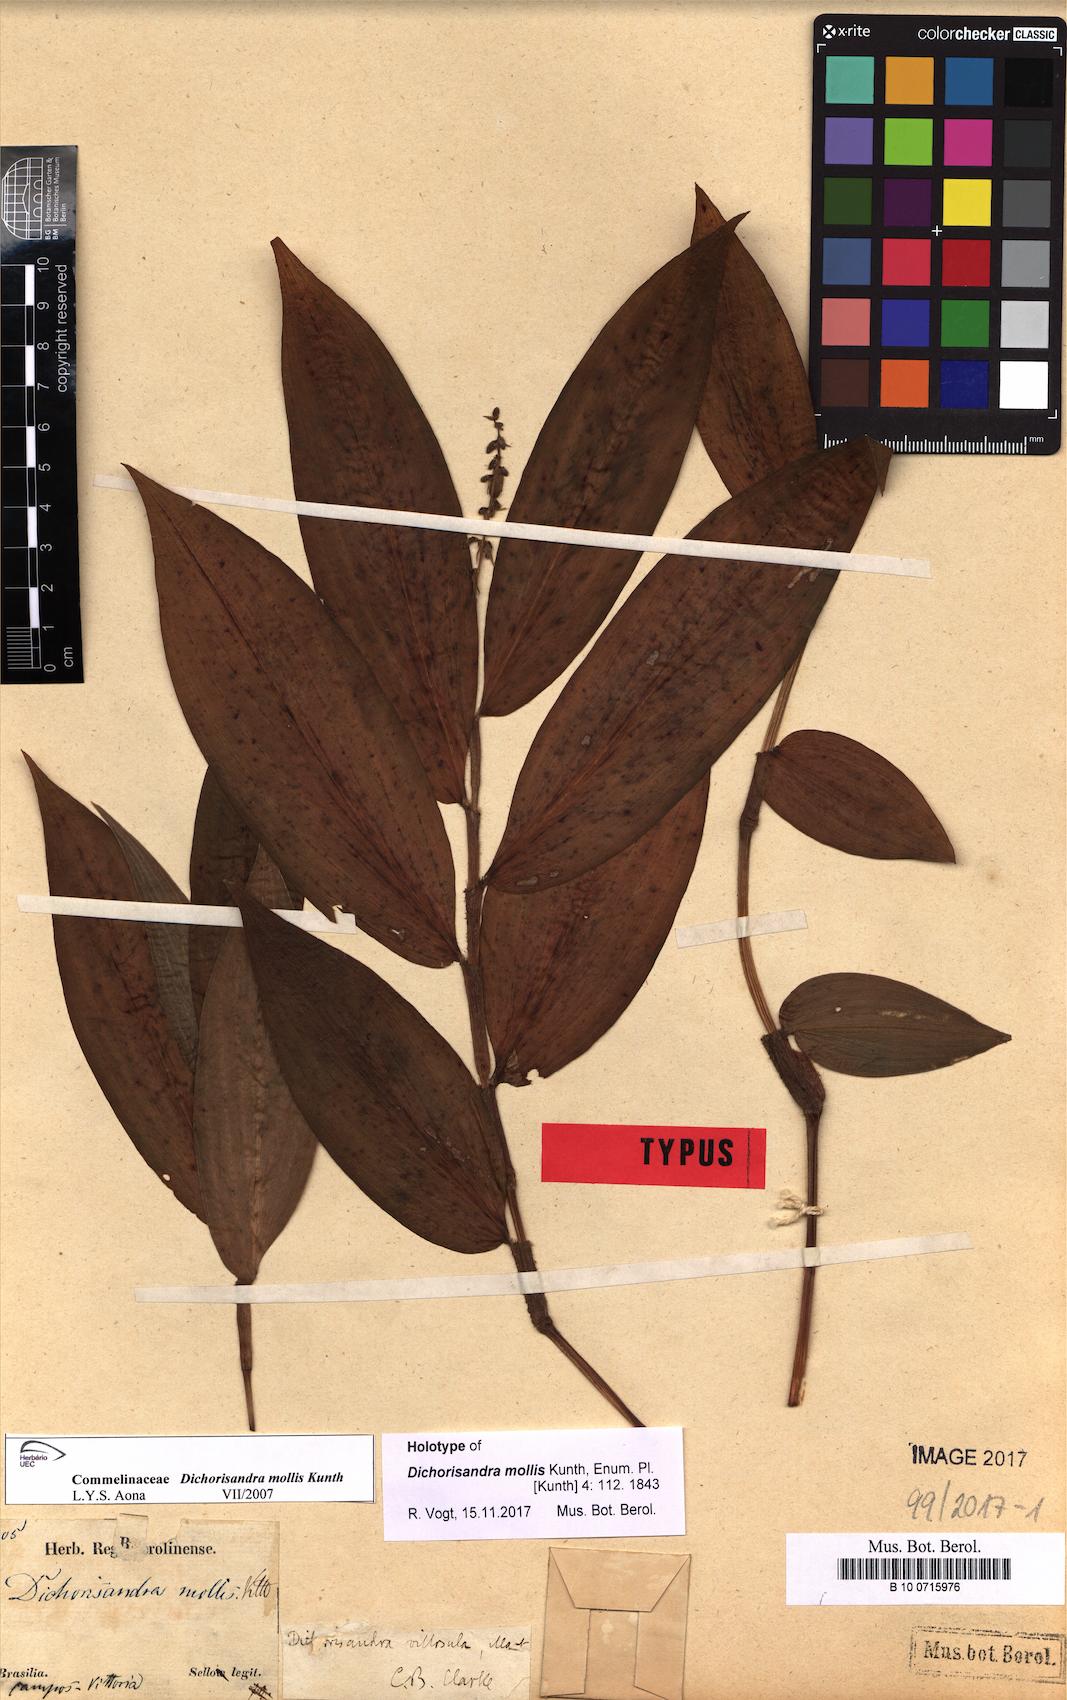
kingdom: Plantae
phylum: Tracheophyta
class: Liliopsida
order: Commelinales
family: Commelinaceae
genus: Dichorisandra
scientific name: Dichorisandra tejucensis
